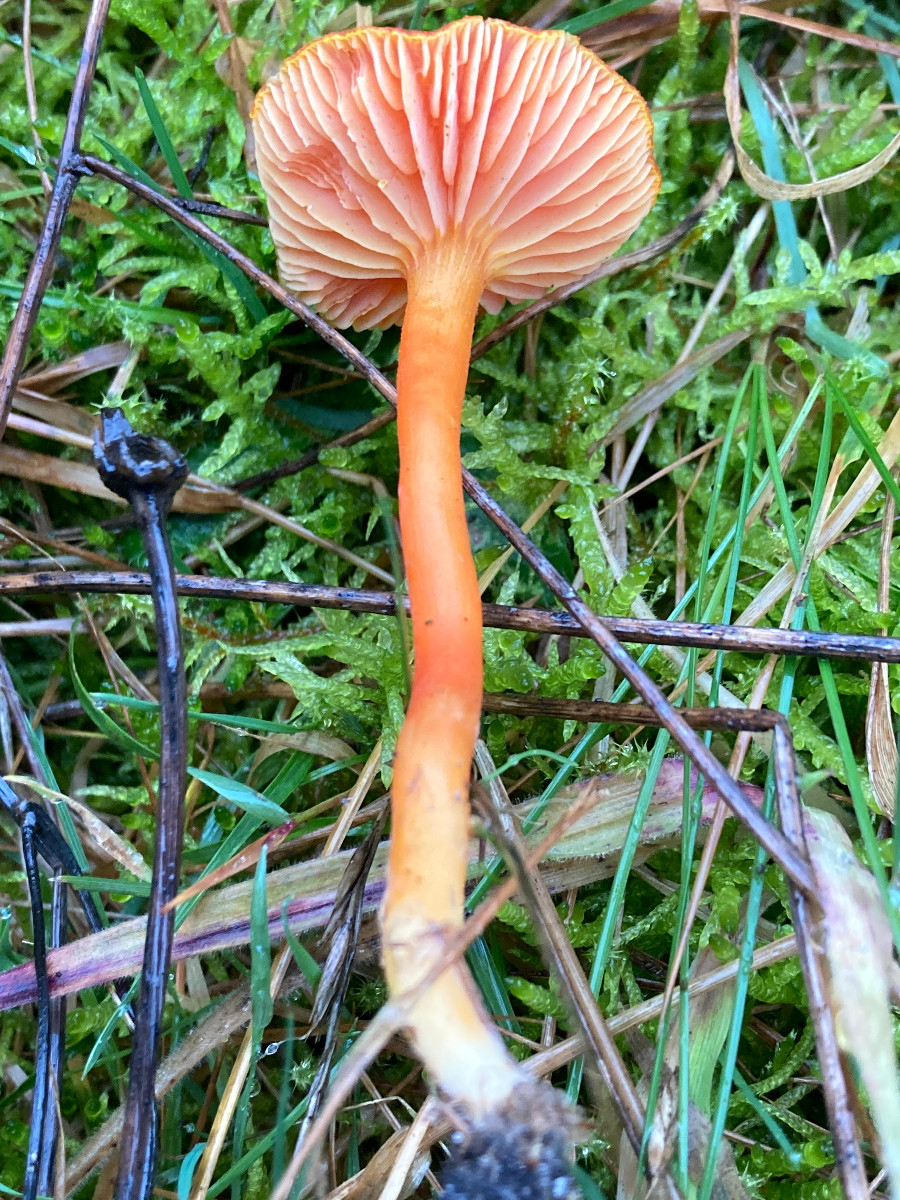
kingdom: Fungi
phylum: Basidiomycota
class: Agaricomycetes
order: Agaricales
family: Hygrophoraceae
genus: Hygrocybe
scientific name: Hygrocybe miniata
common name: mønje-vokshat
